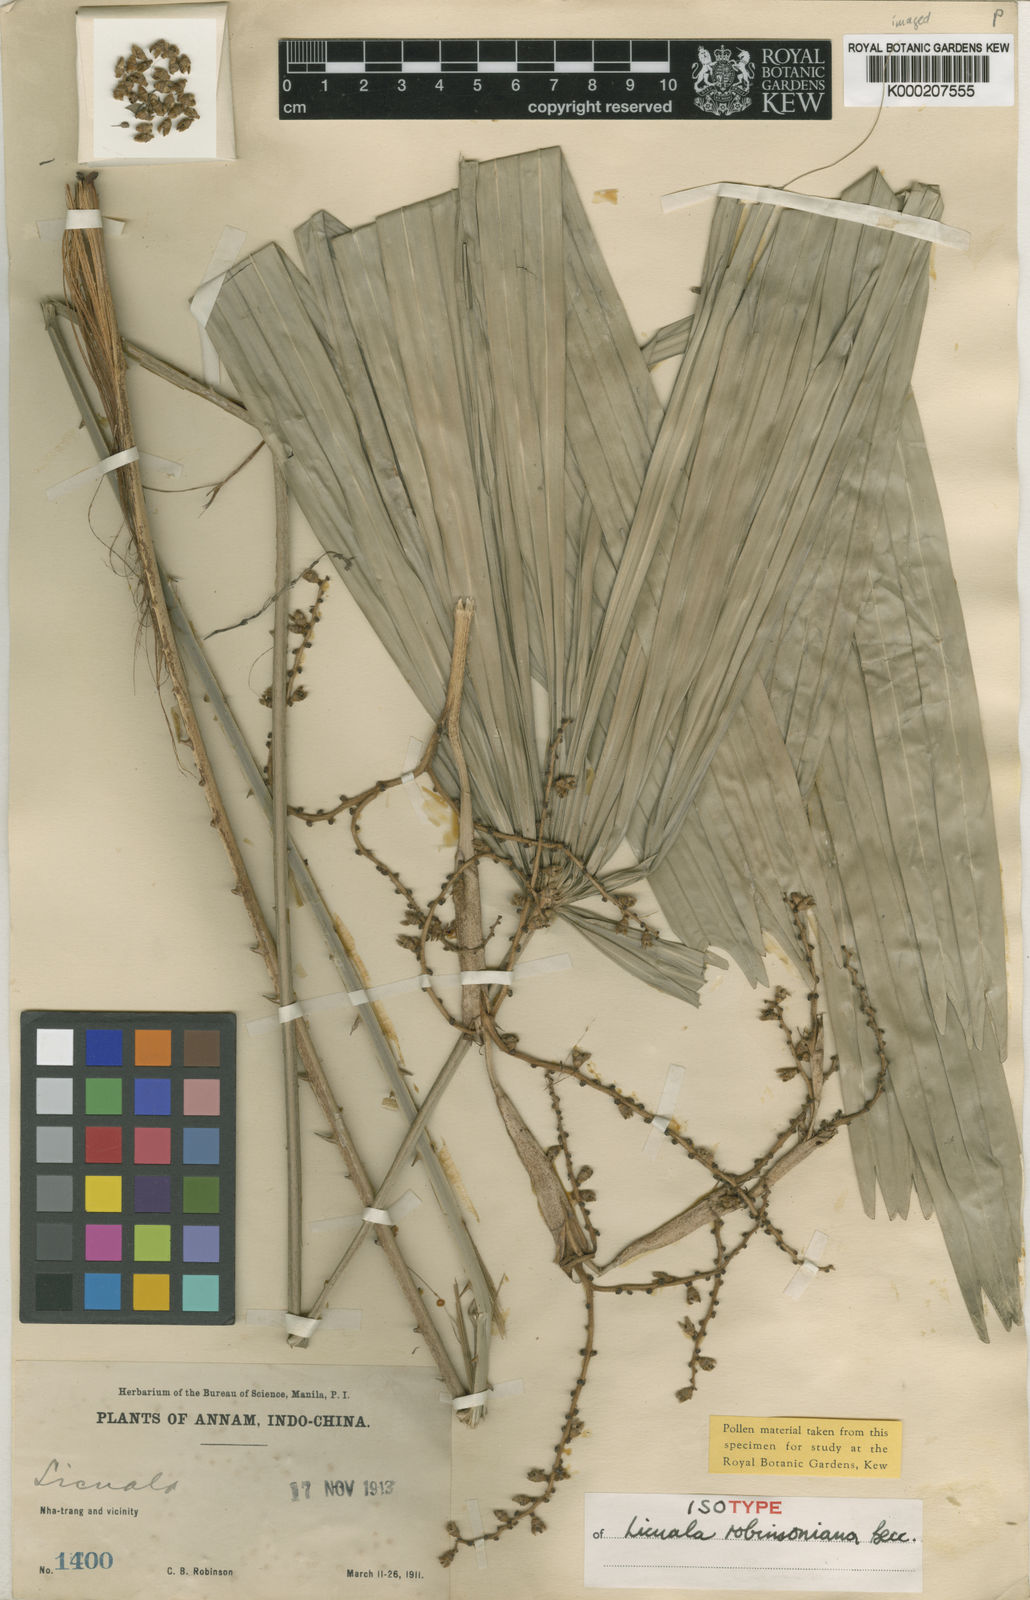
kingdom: Plantae
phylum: Tracheophyta
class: Liliopsida
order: Arecales
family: Arecaceae
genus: Licuala
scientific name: Licuala robinsoniana
